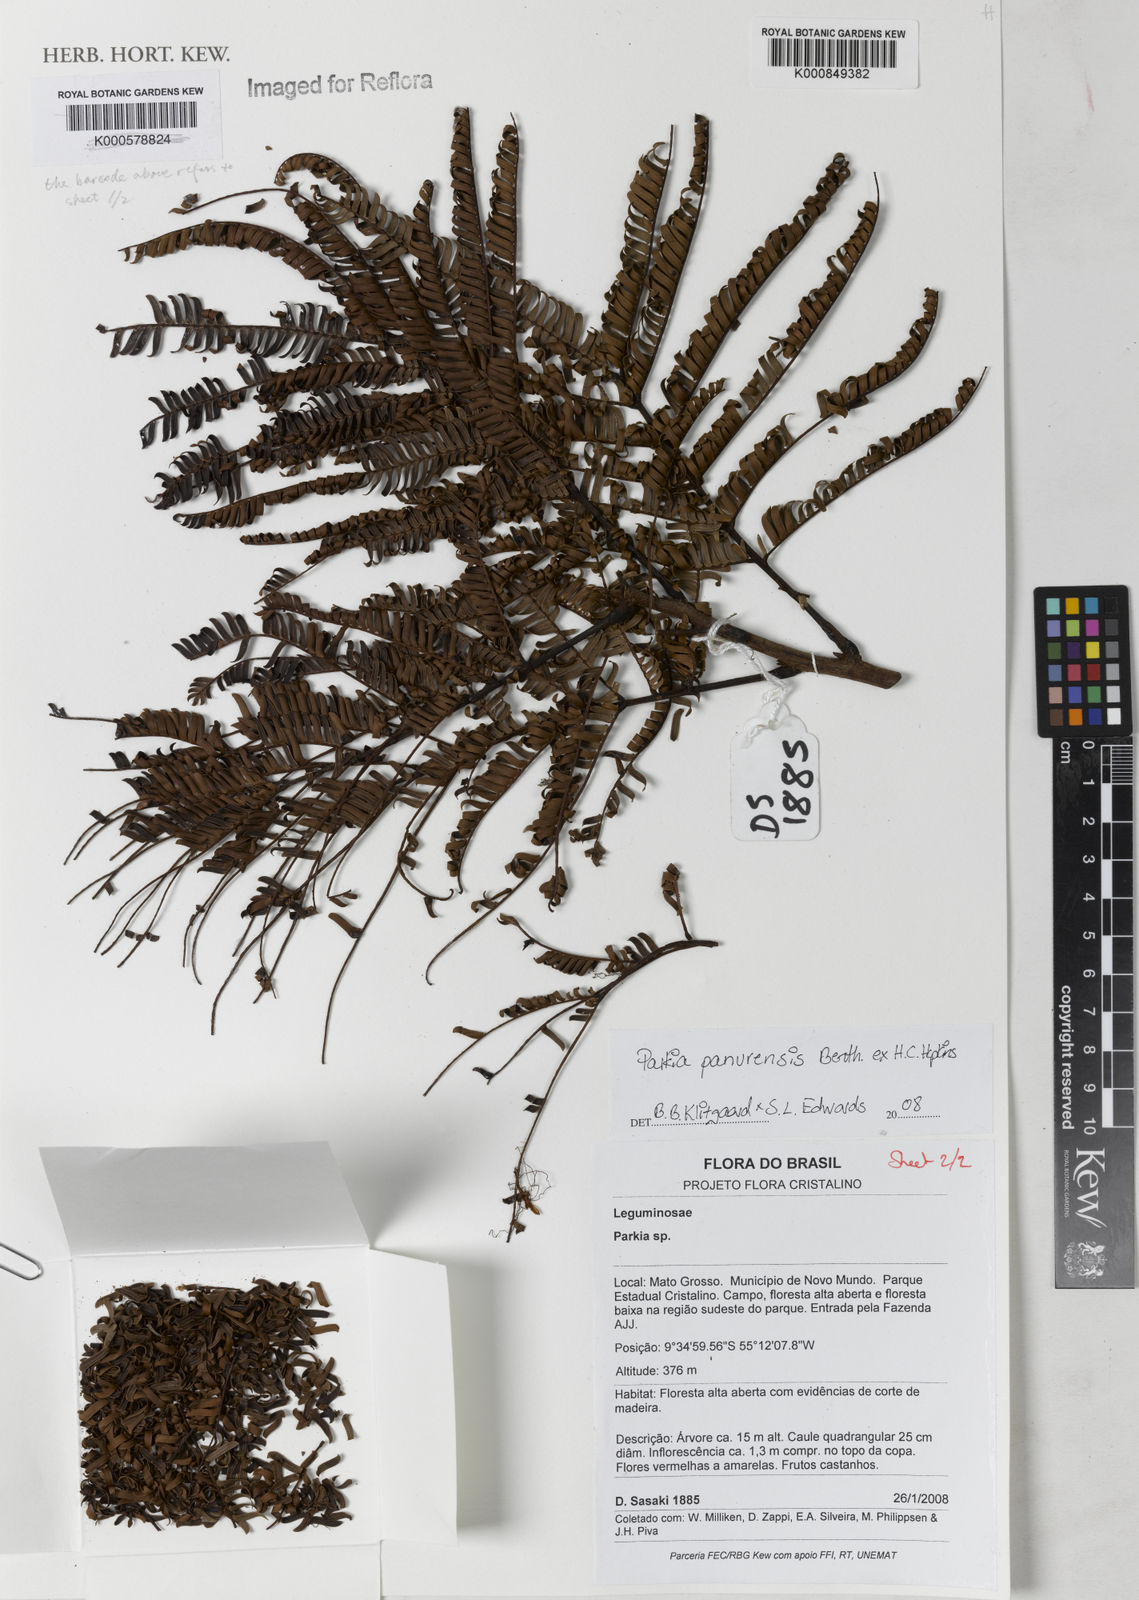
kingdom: Plantae
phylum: Tracheophyta
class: Magnoliopsida
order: Fabales
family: Fabaceae
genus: Parkia
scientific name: Parkia pectinata
